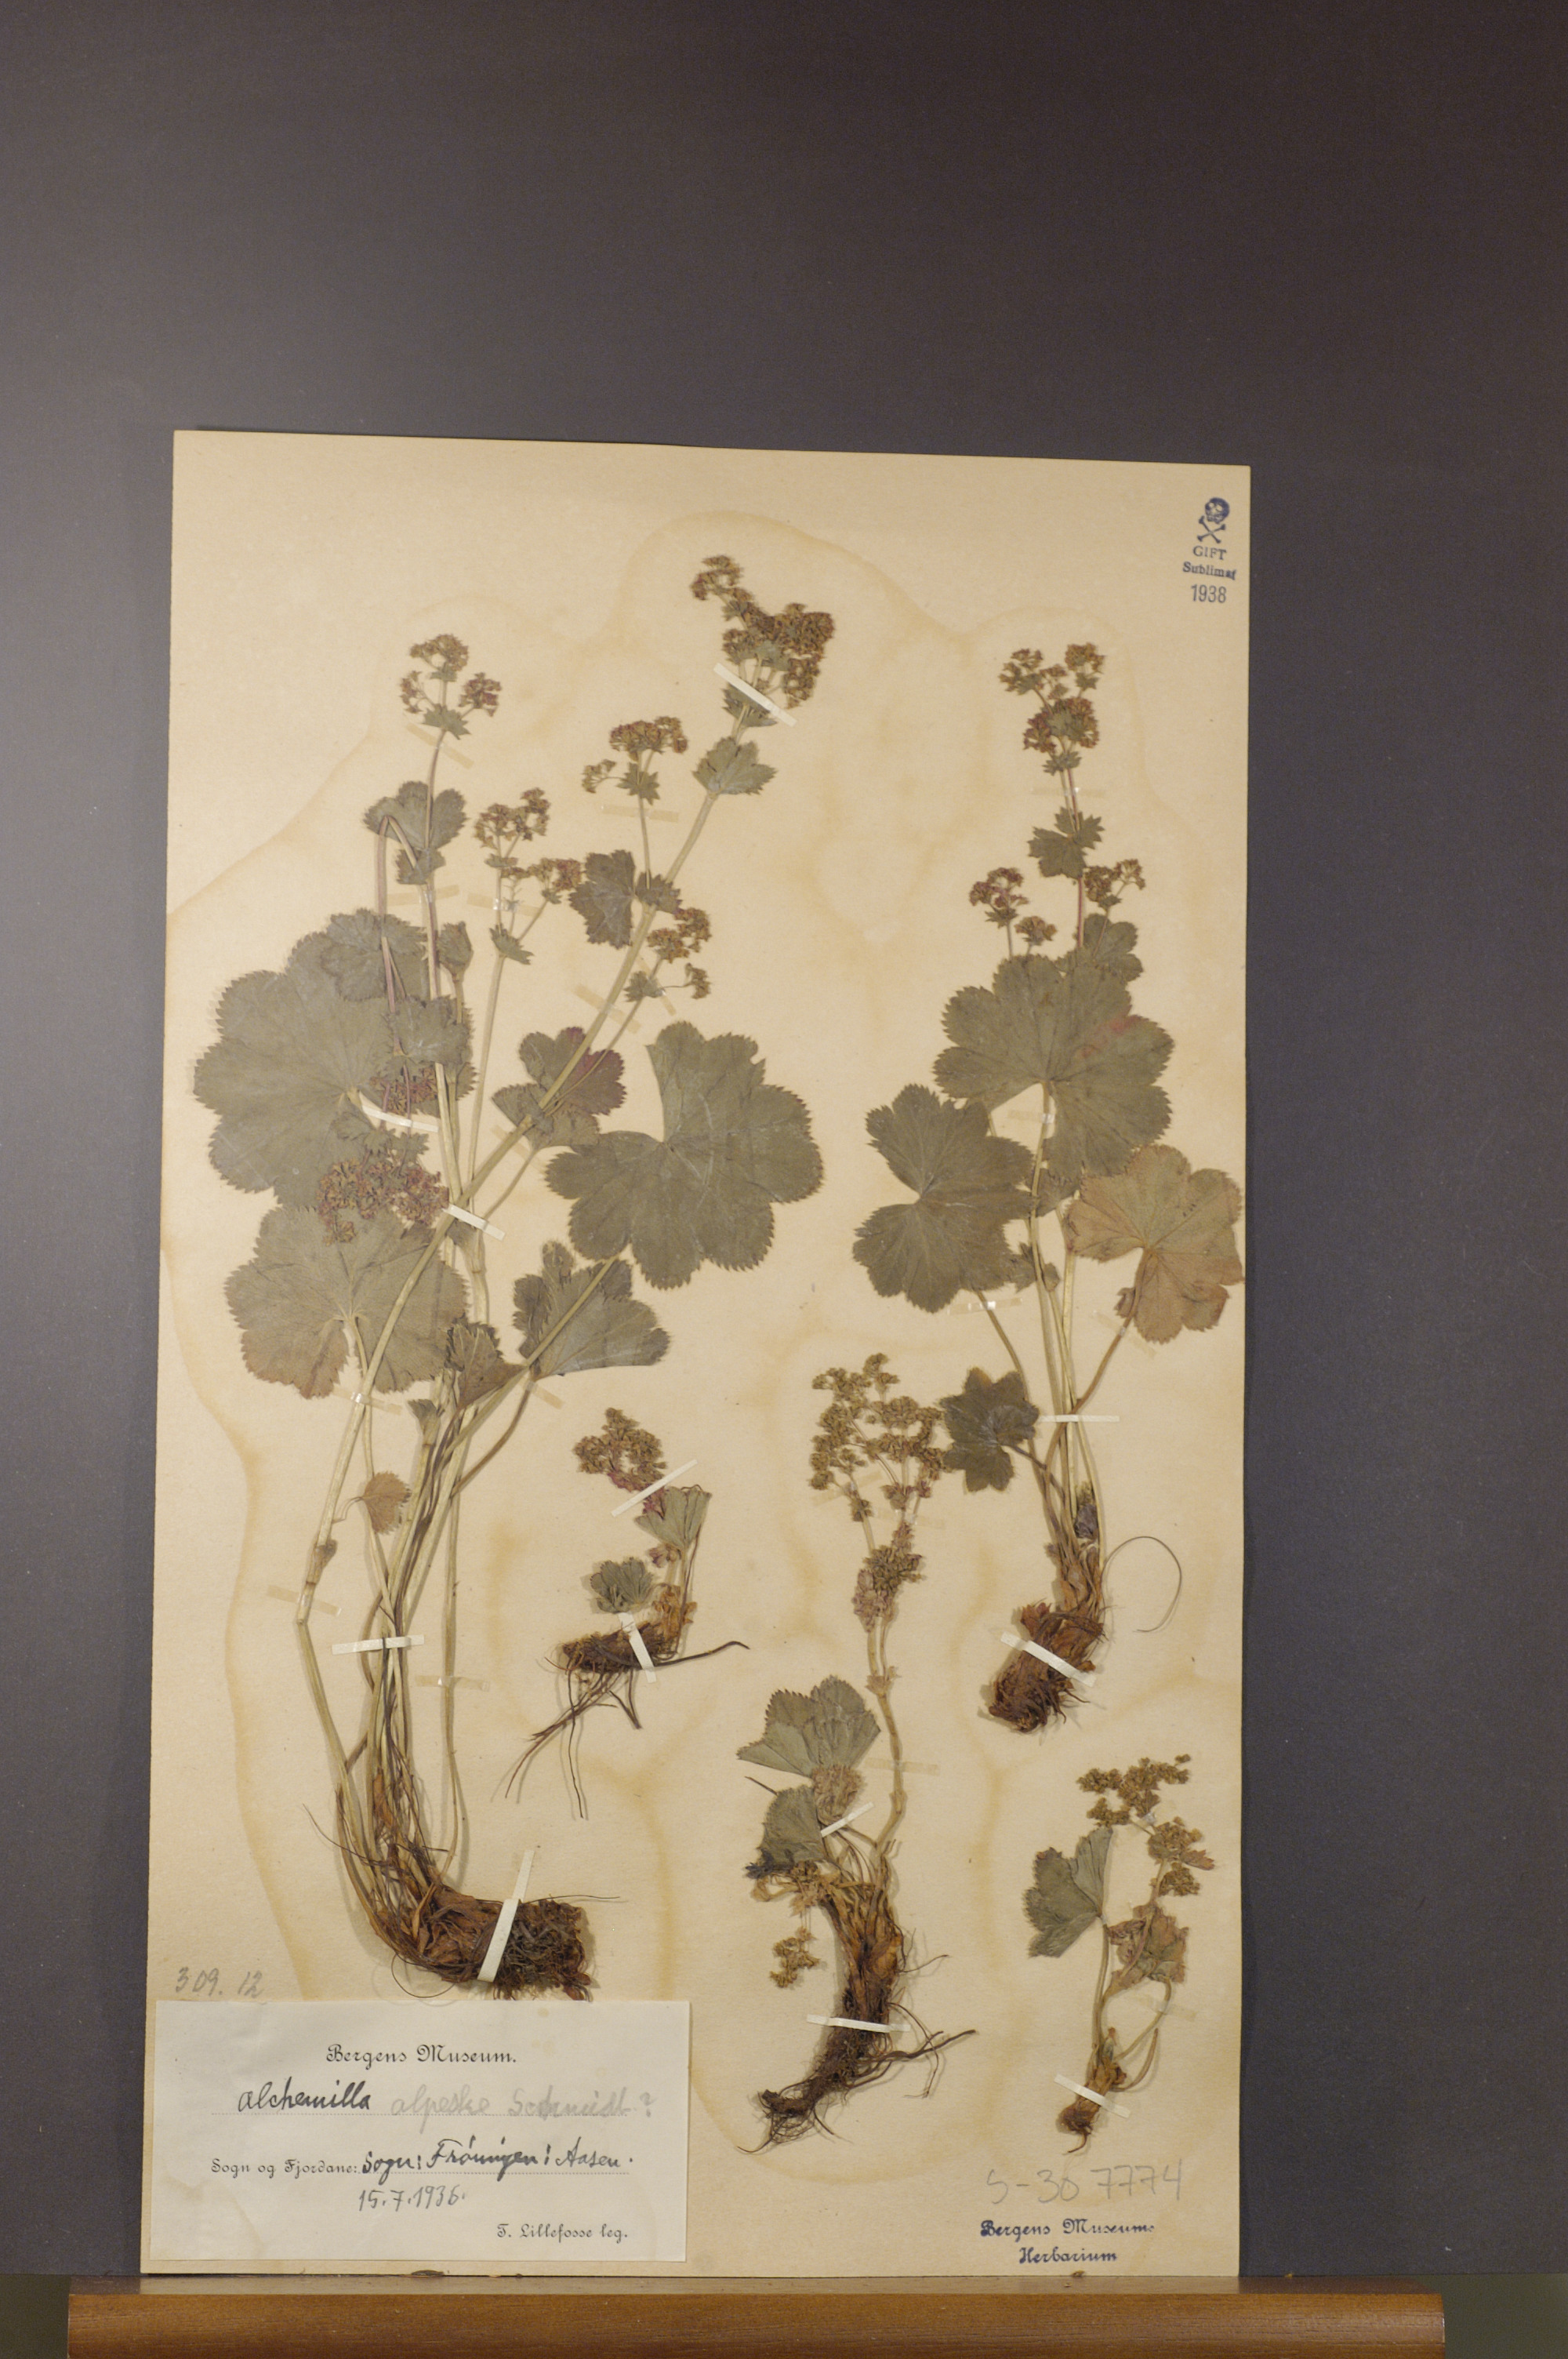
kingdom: Plantae
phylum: Tracheophyta
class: Magnoliopsida
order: Rosales
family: Rosaceae
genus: Alchemilla
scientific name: Alchemilla glabra
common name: Smooth lady's-mantle
